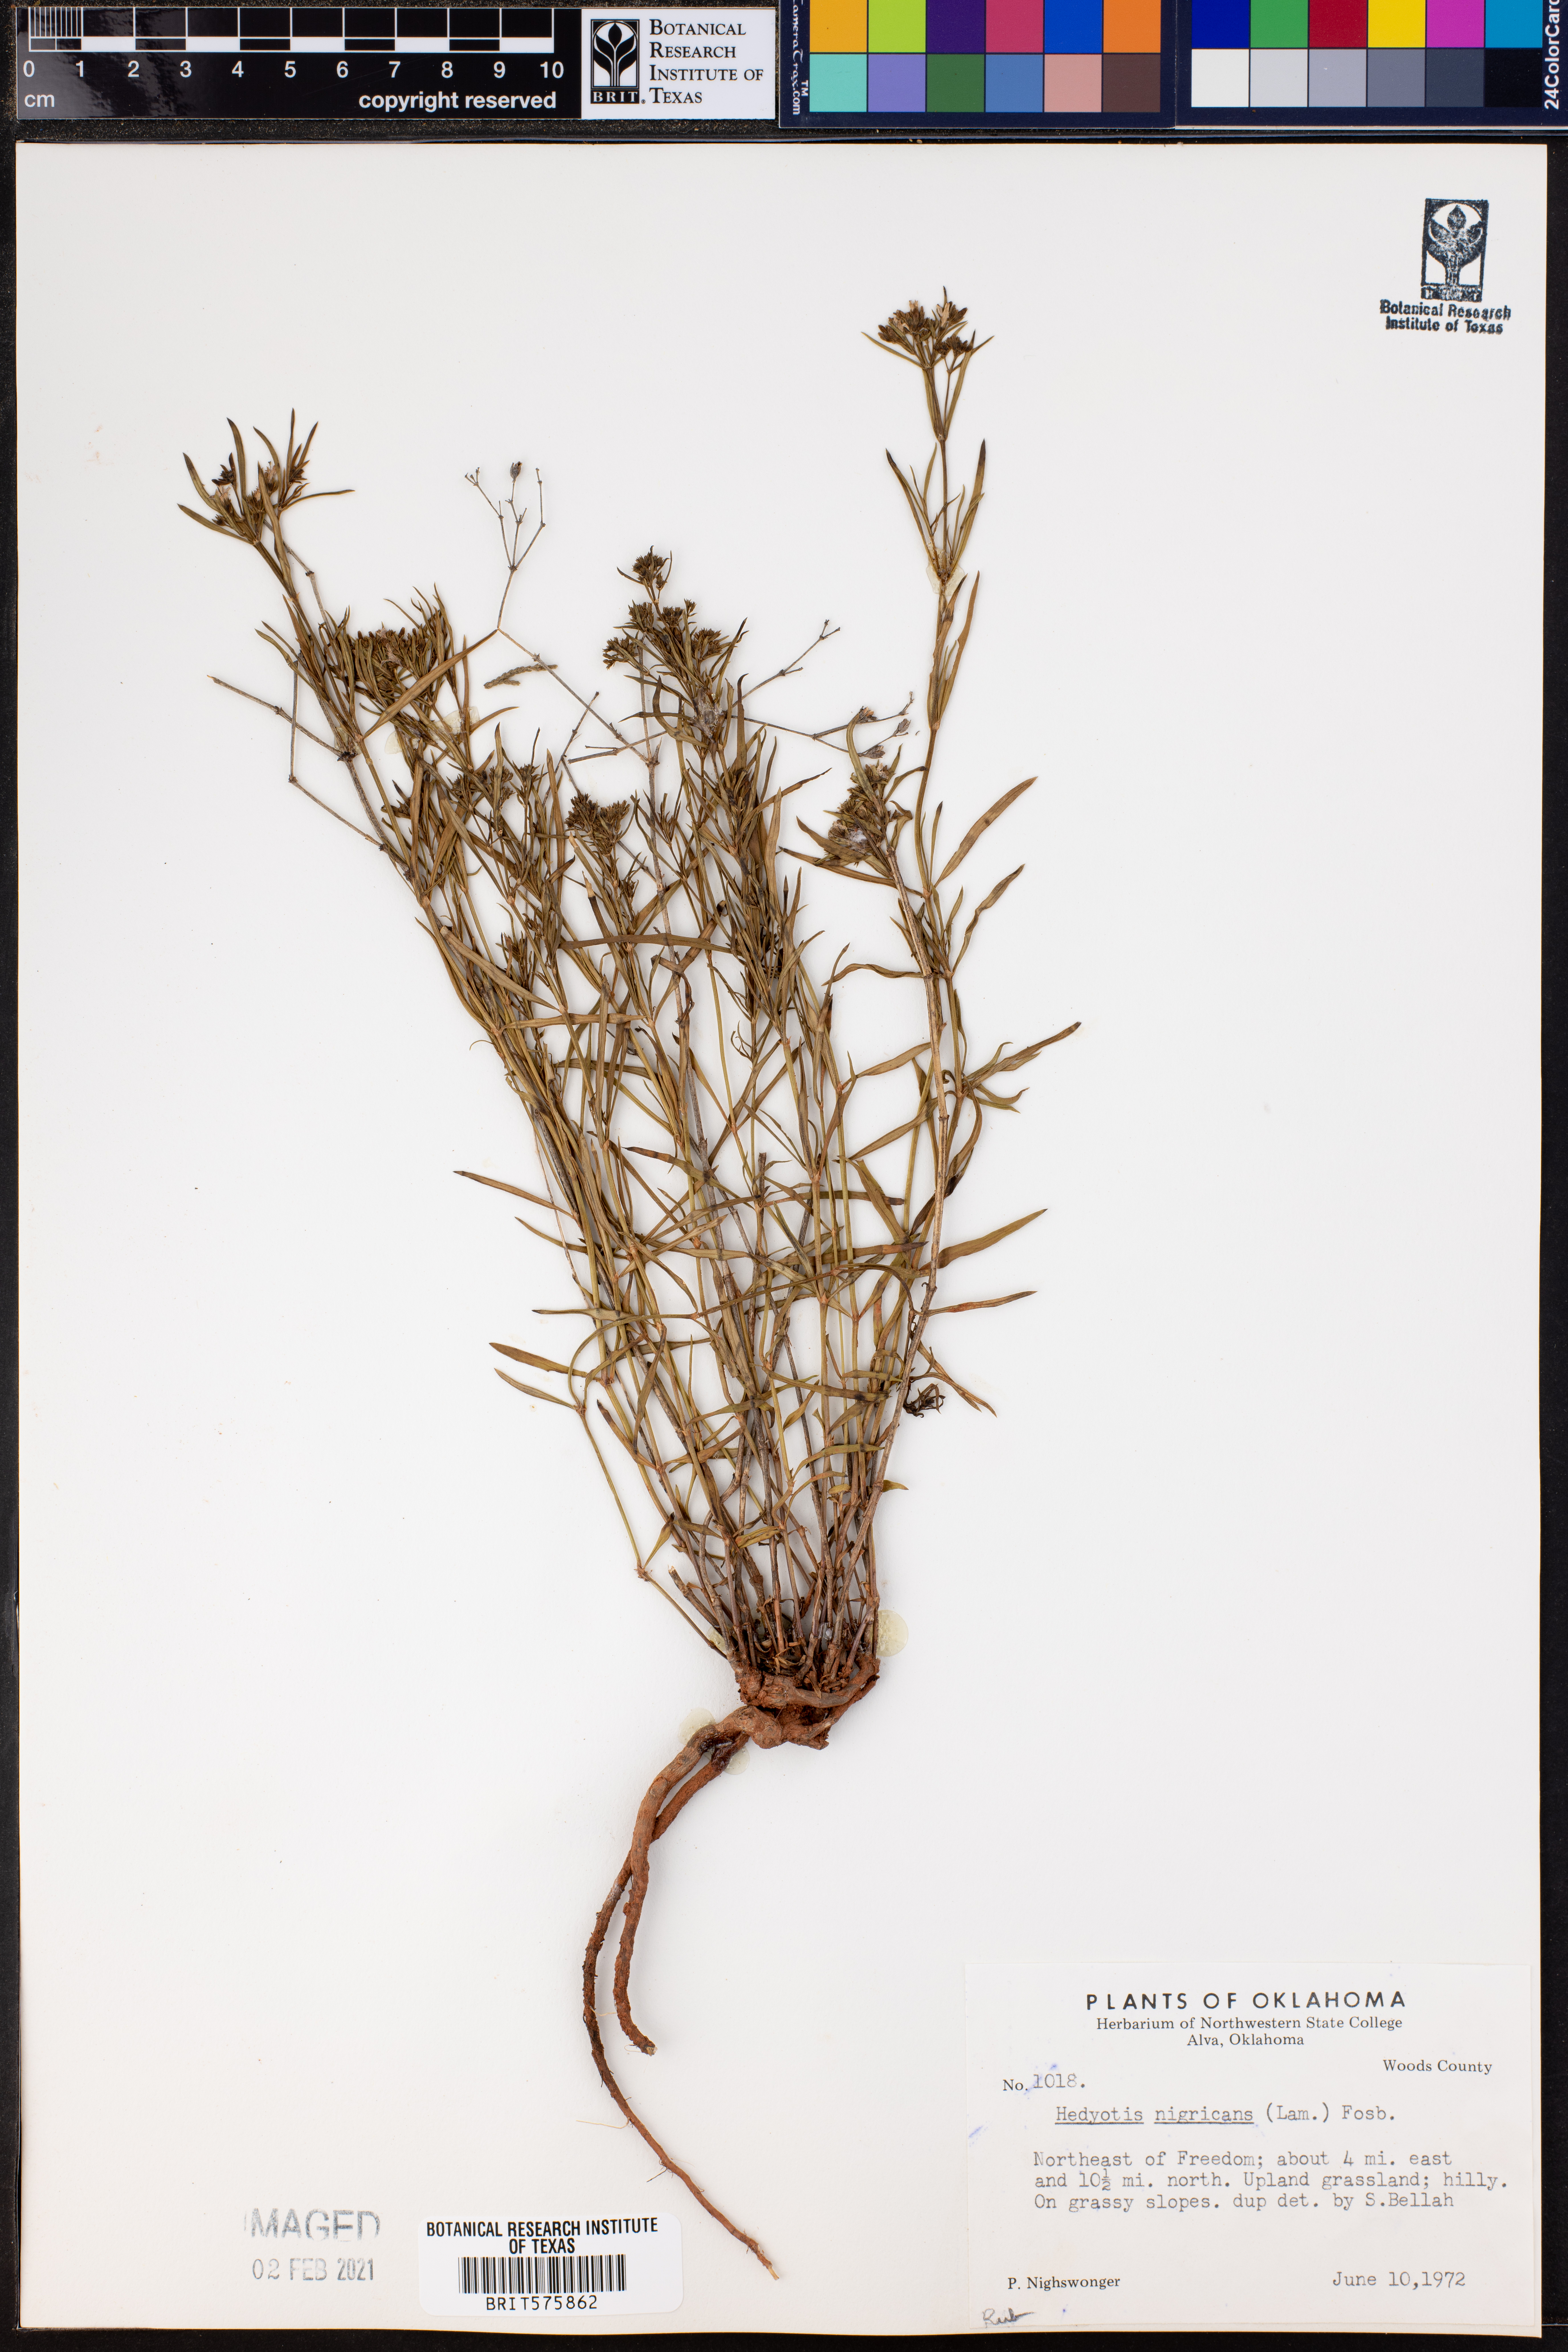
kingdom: Plantae
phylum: Tracheophyta
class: Magnoliopsida
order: Gentianales
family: Rubiaceae
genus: Stenaria
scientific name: Stenaria nigricans
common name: Diamondflowers
